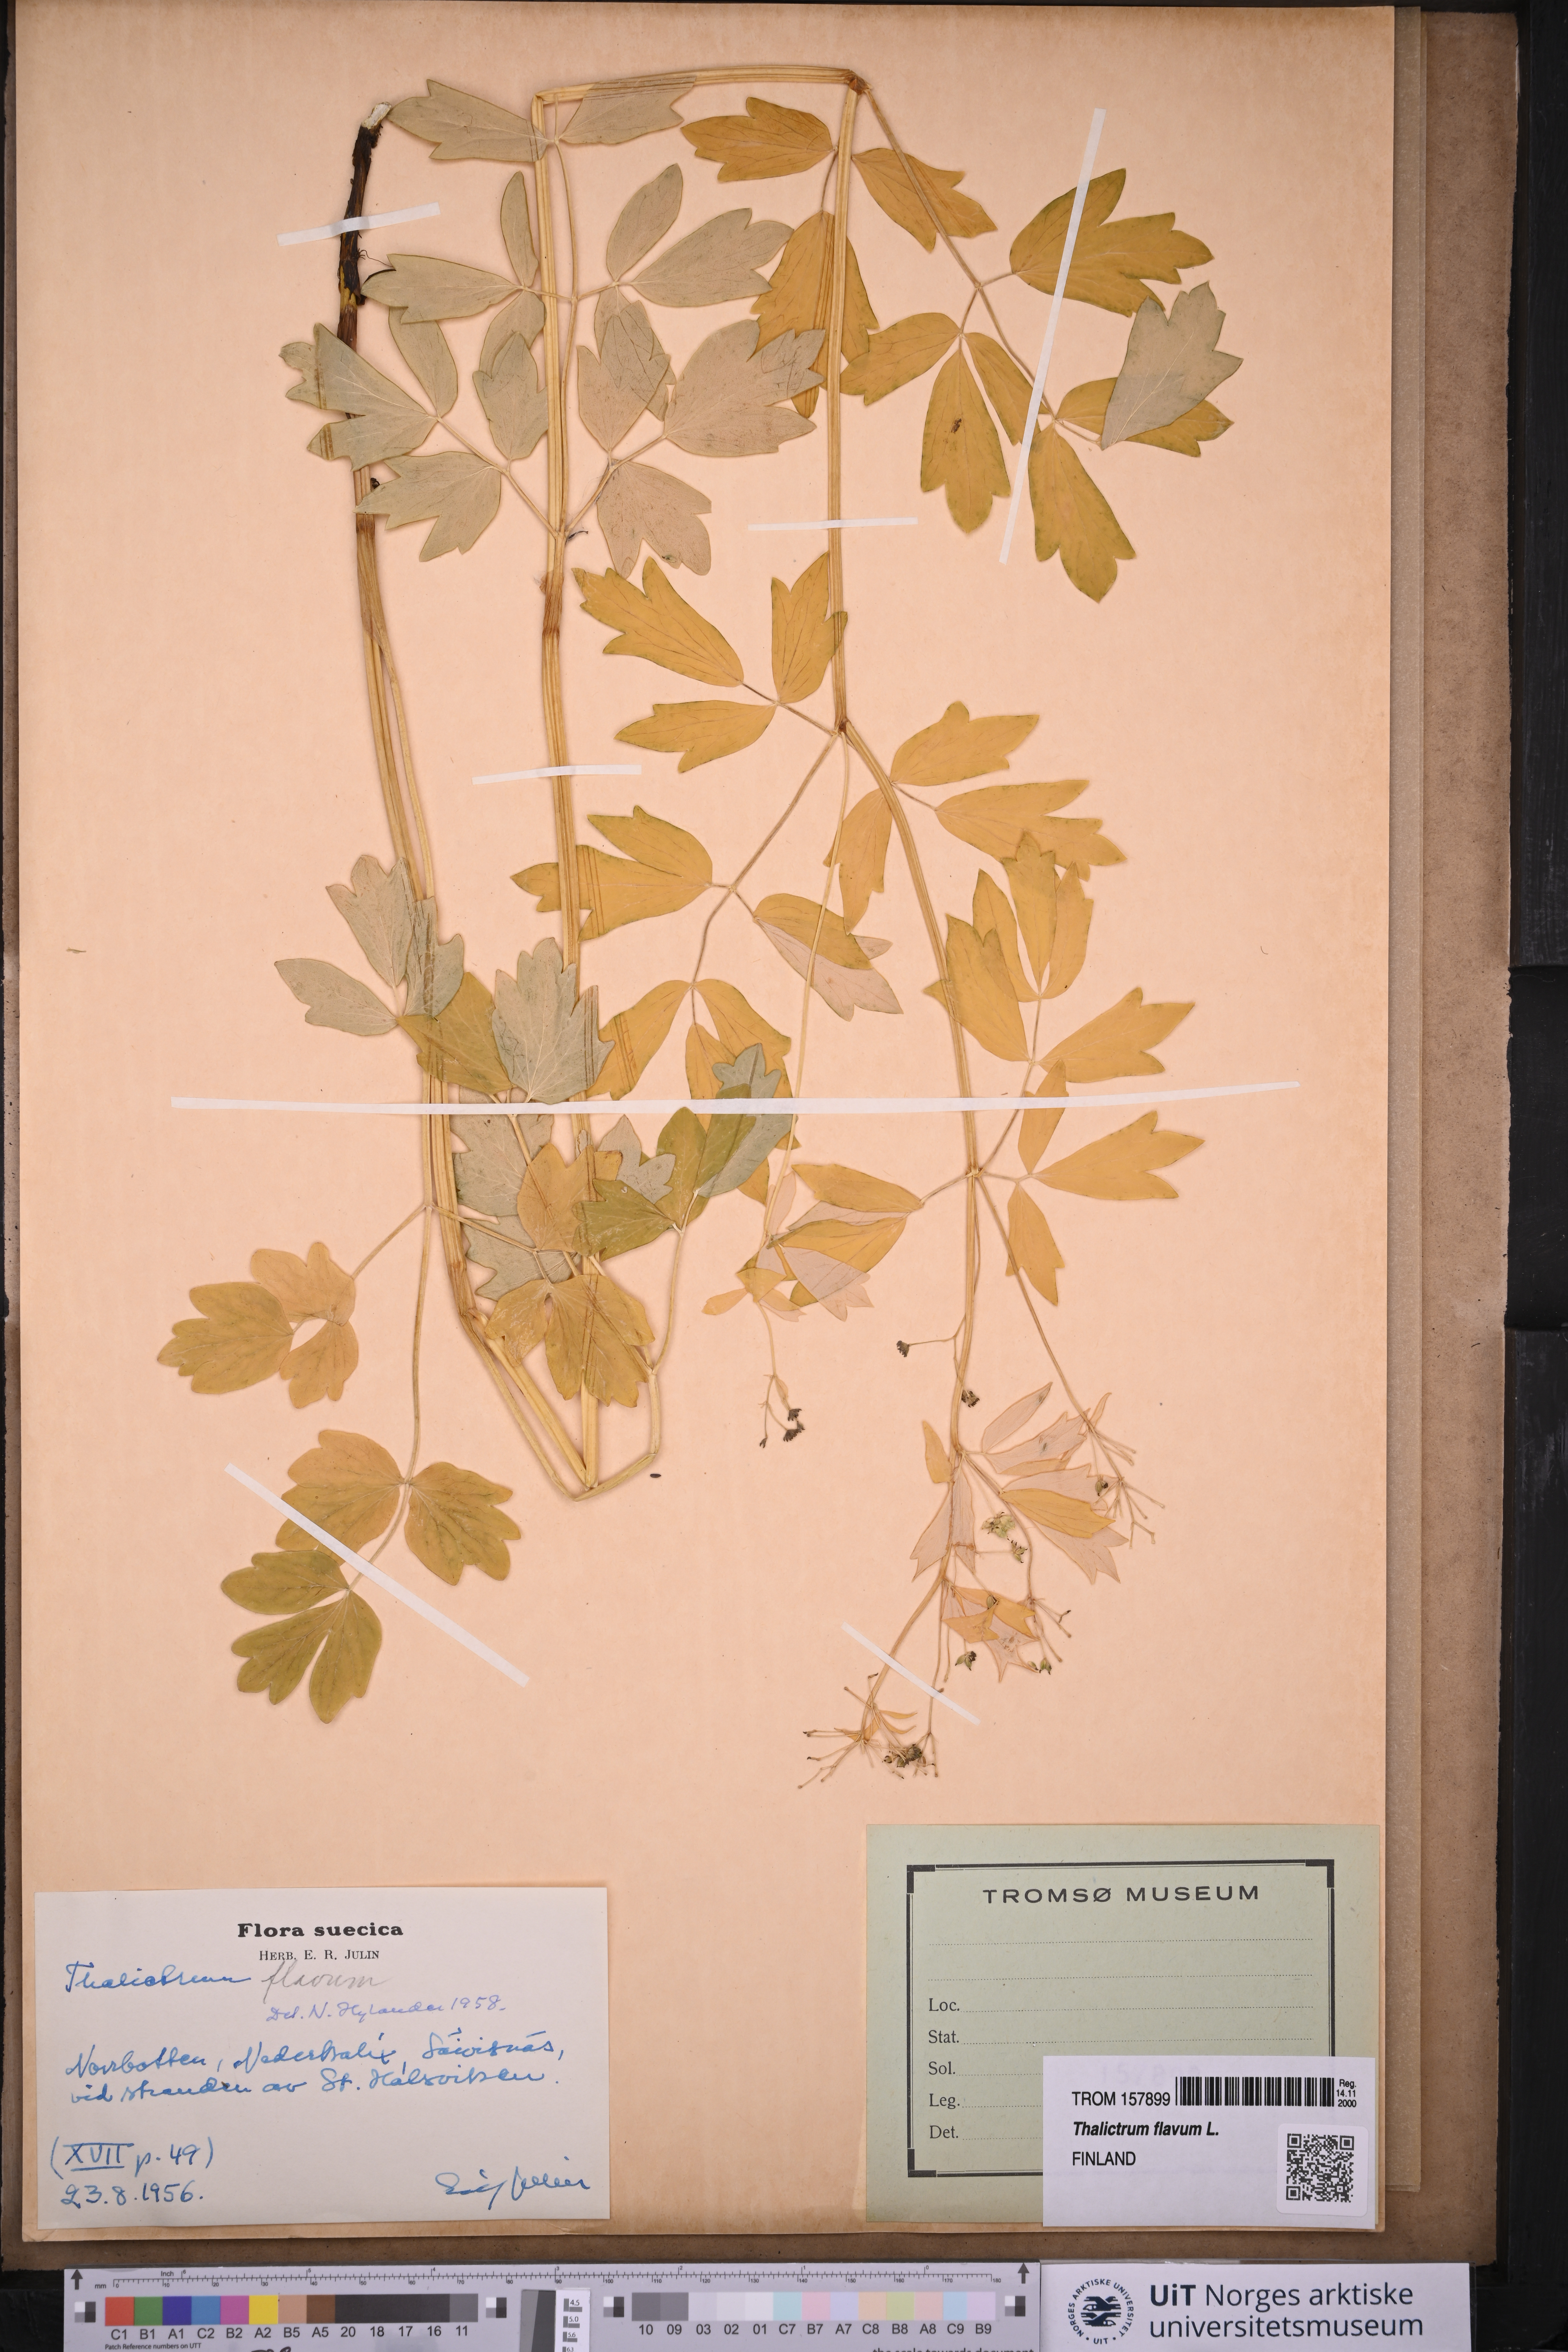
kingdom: Plantae
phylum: Tracheophyta
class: Magnoliopsida
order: Ranunculales
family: Ranunculaceae
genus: Thalictrum
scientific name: Thalictrum flavum
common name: Common meadow-rue
